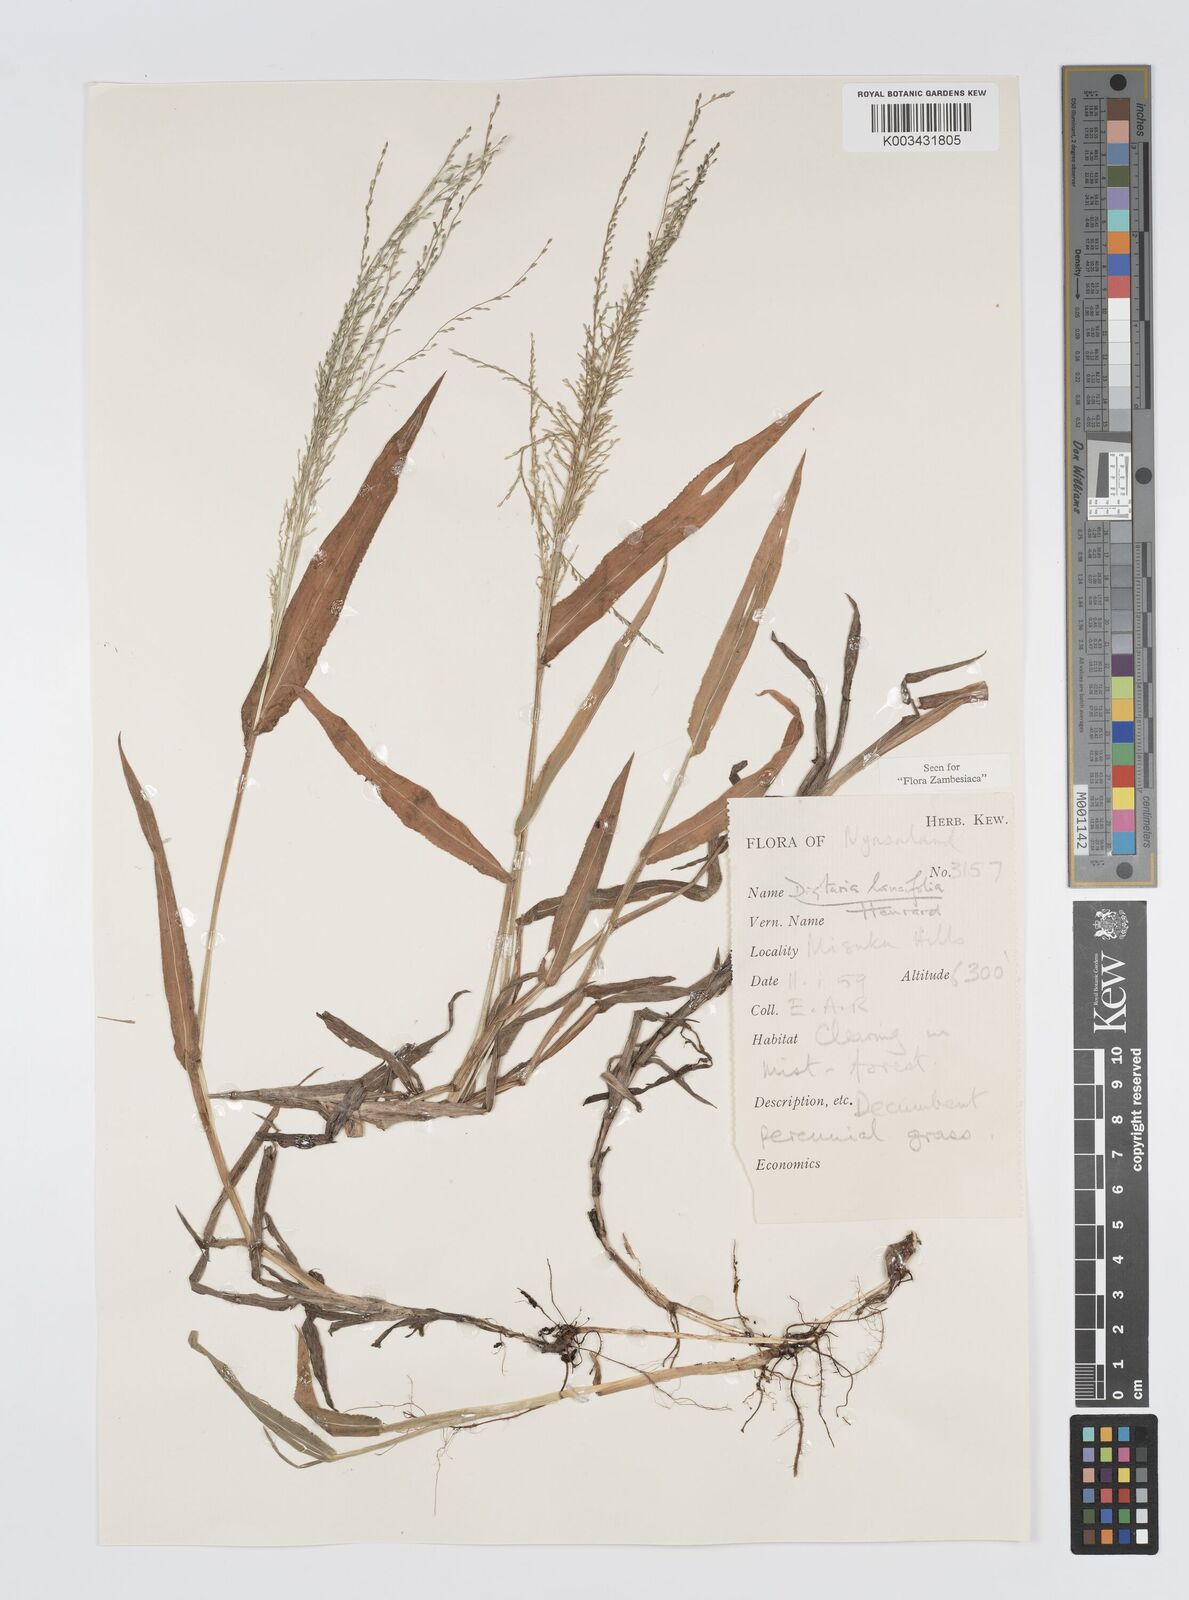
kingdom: Plantae
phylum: Tracheophyta
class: Liliopsida
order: Poales
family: Poaceae
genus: Digitaria
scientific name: Digitaria pearsonii
